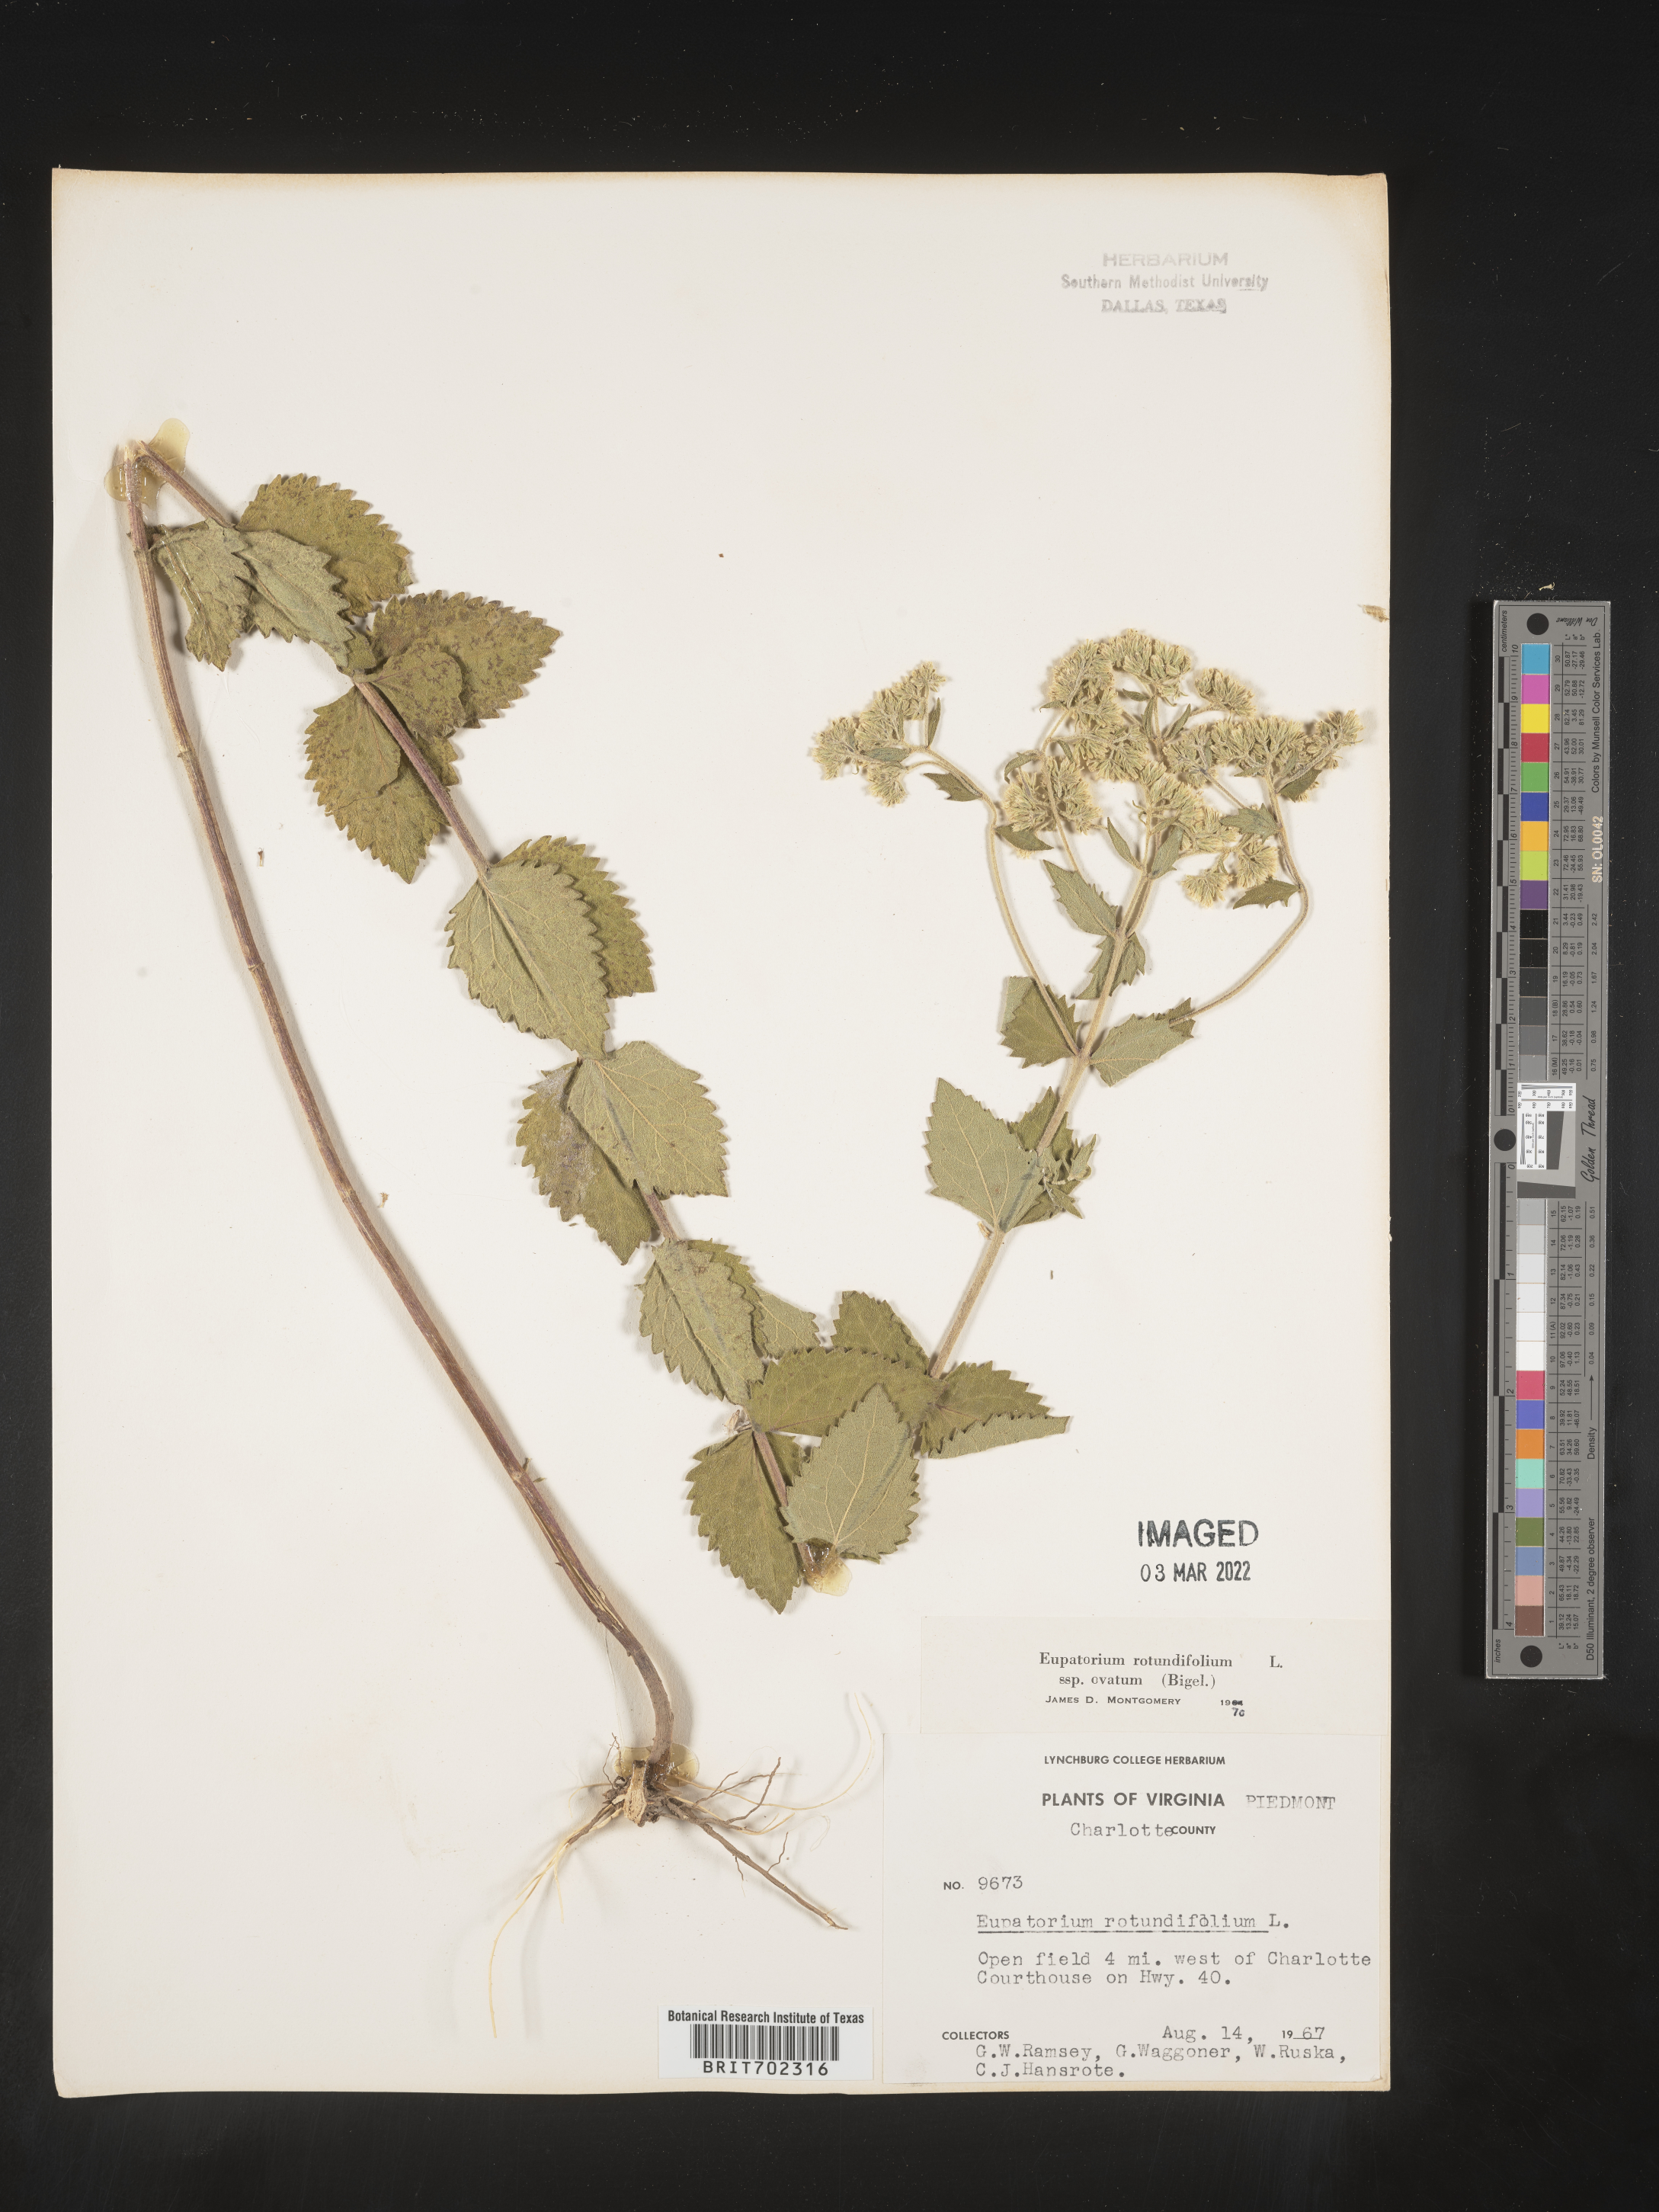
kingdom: Plantae
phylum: Tracheophyta
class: Magnoliopsida
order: Asterales
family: Asteraceae
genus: Eupatorium
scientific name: Eupatorium rotundifolium
